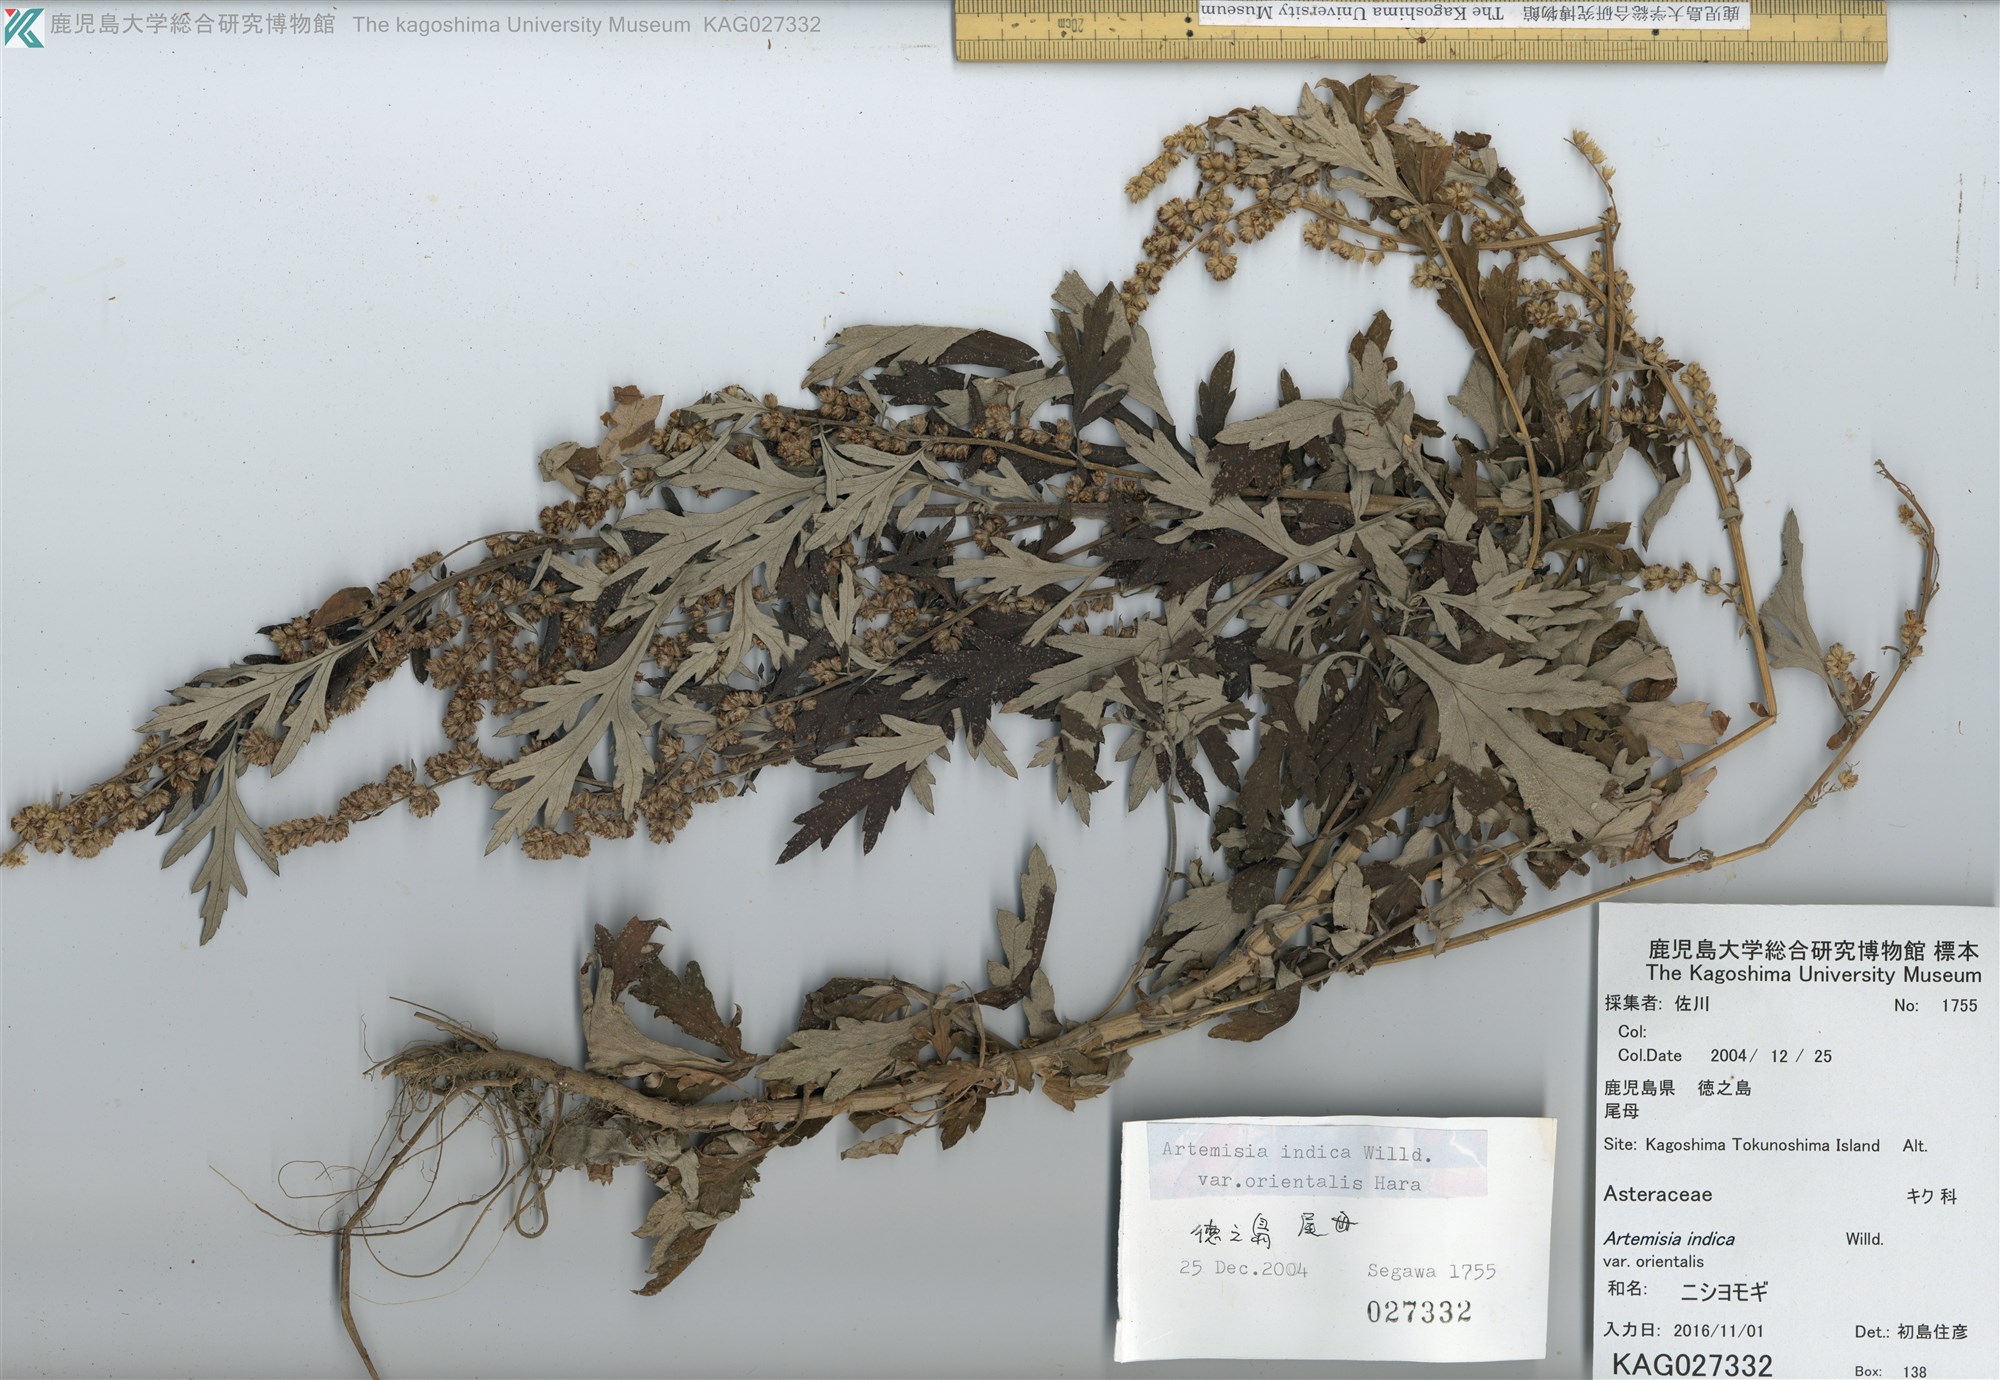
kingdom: Plantae
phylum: Tracheophyta
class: Magnoliopsida
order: Asterales
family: Asteraceae
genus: Artemisia
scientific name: Artemisia indica
